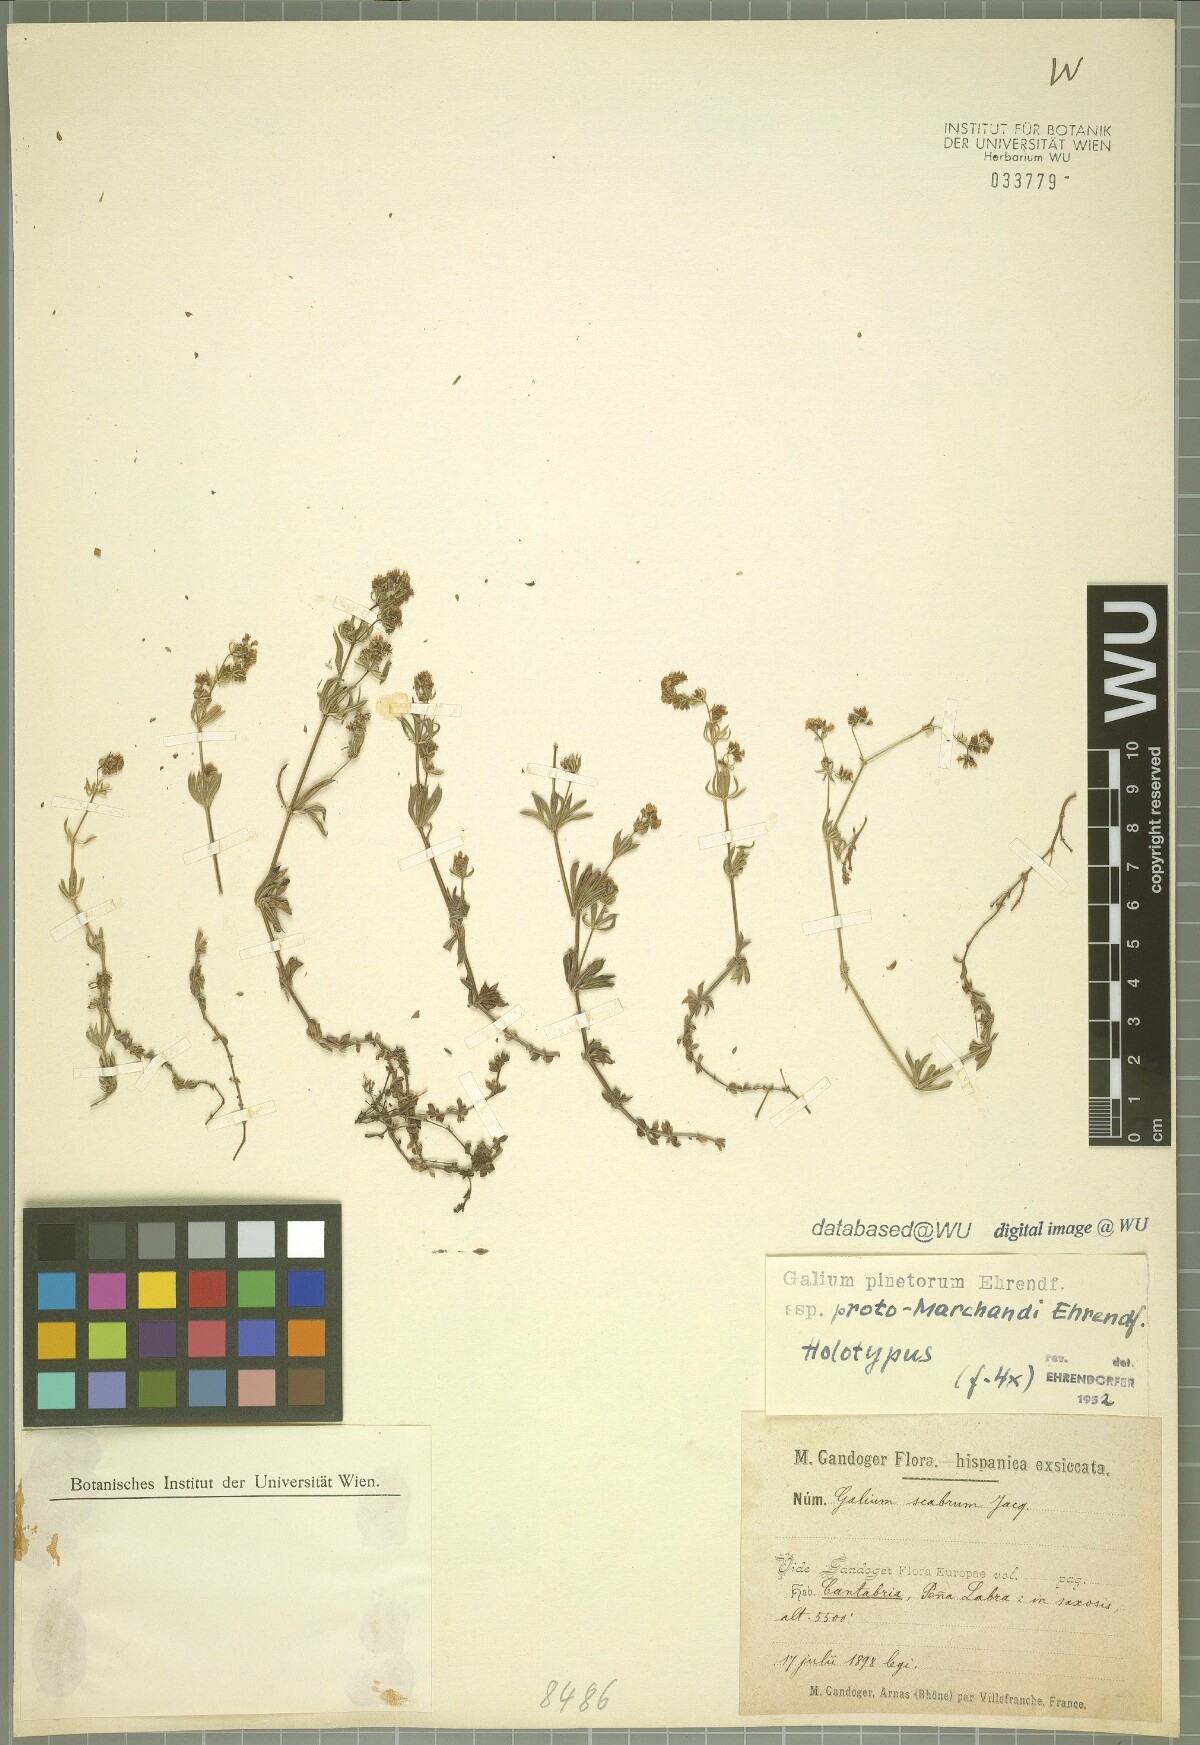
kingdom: Plantae
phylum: Tracheophyta
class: Magnoliopsida
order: Gentianales
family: Rubiaceae
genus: Galium
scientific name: Galium estebanii
